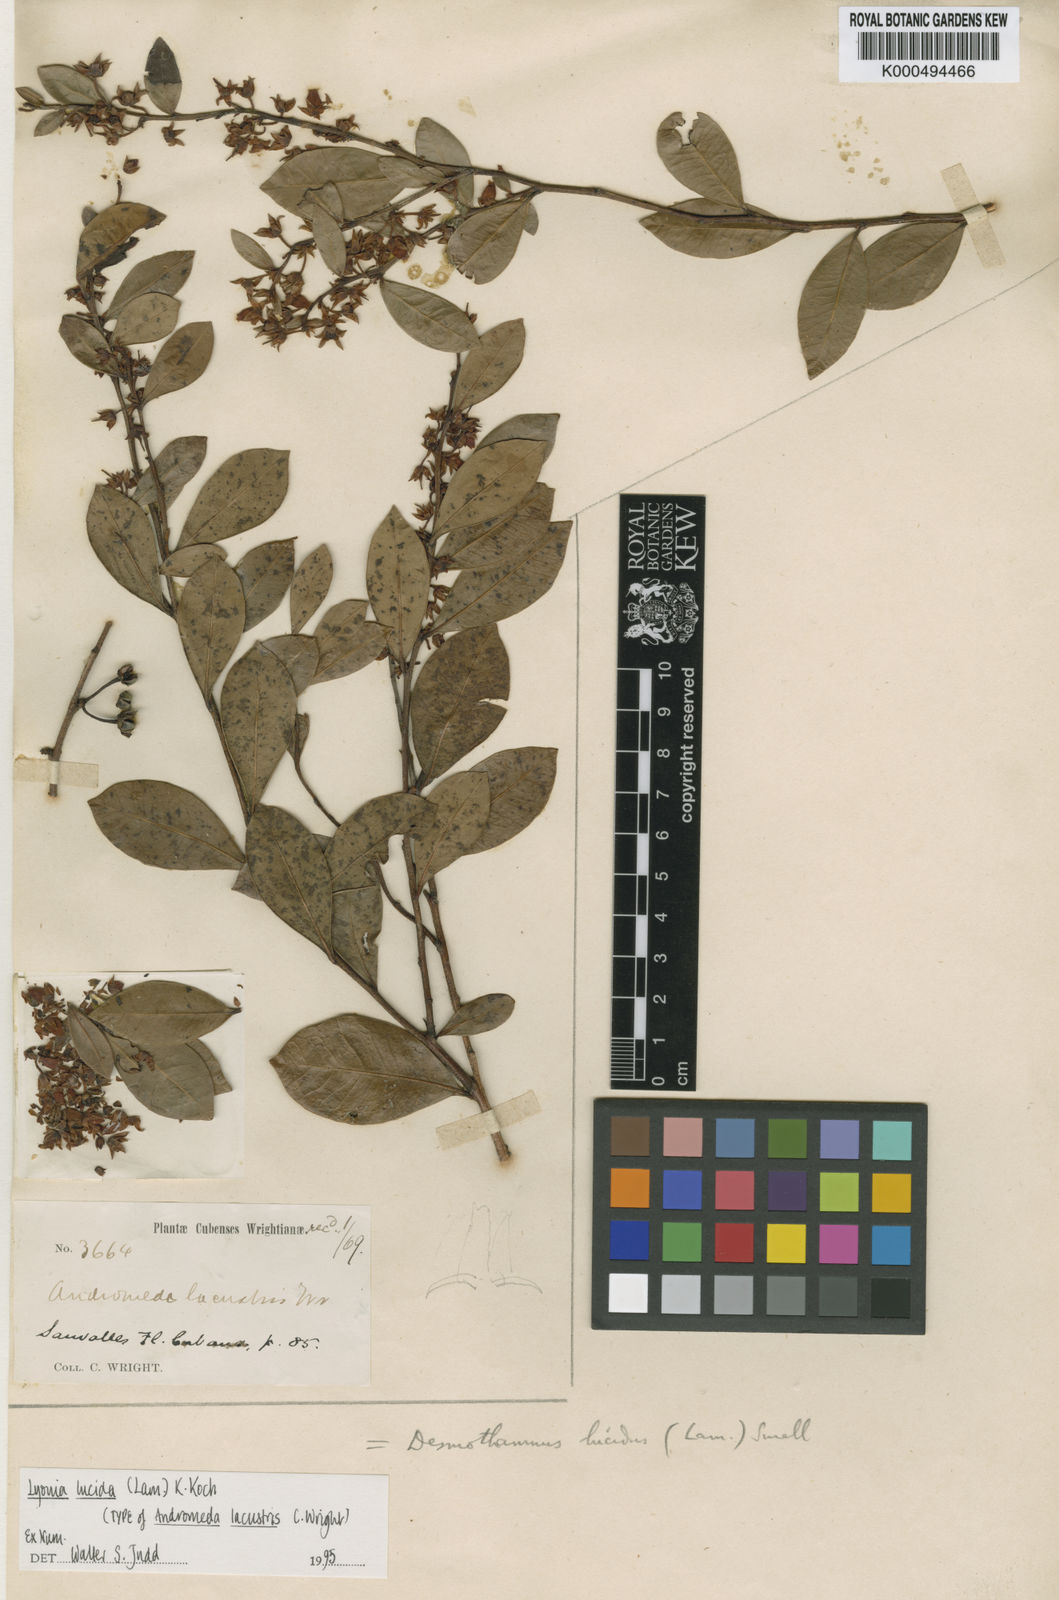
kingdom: Plantae
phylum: Tracheophyta
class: Magnoliopsida
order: Ericales
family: Ericaceae
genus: Lyonia
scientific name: Lyonia lucida
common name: Fetterbush
